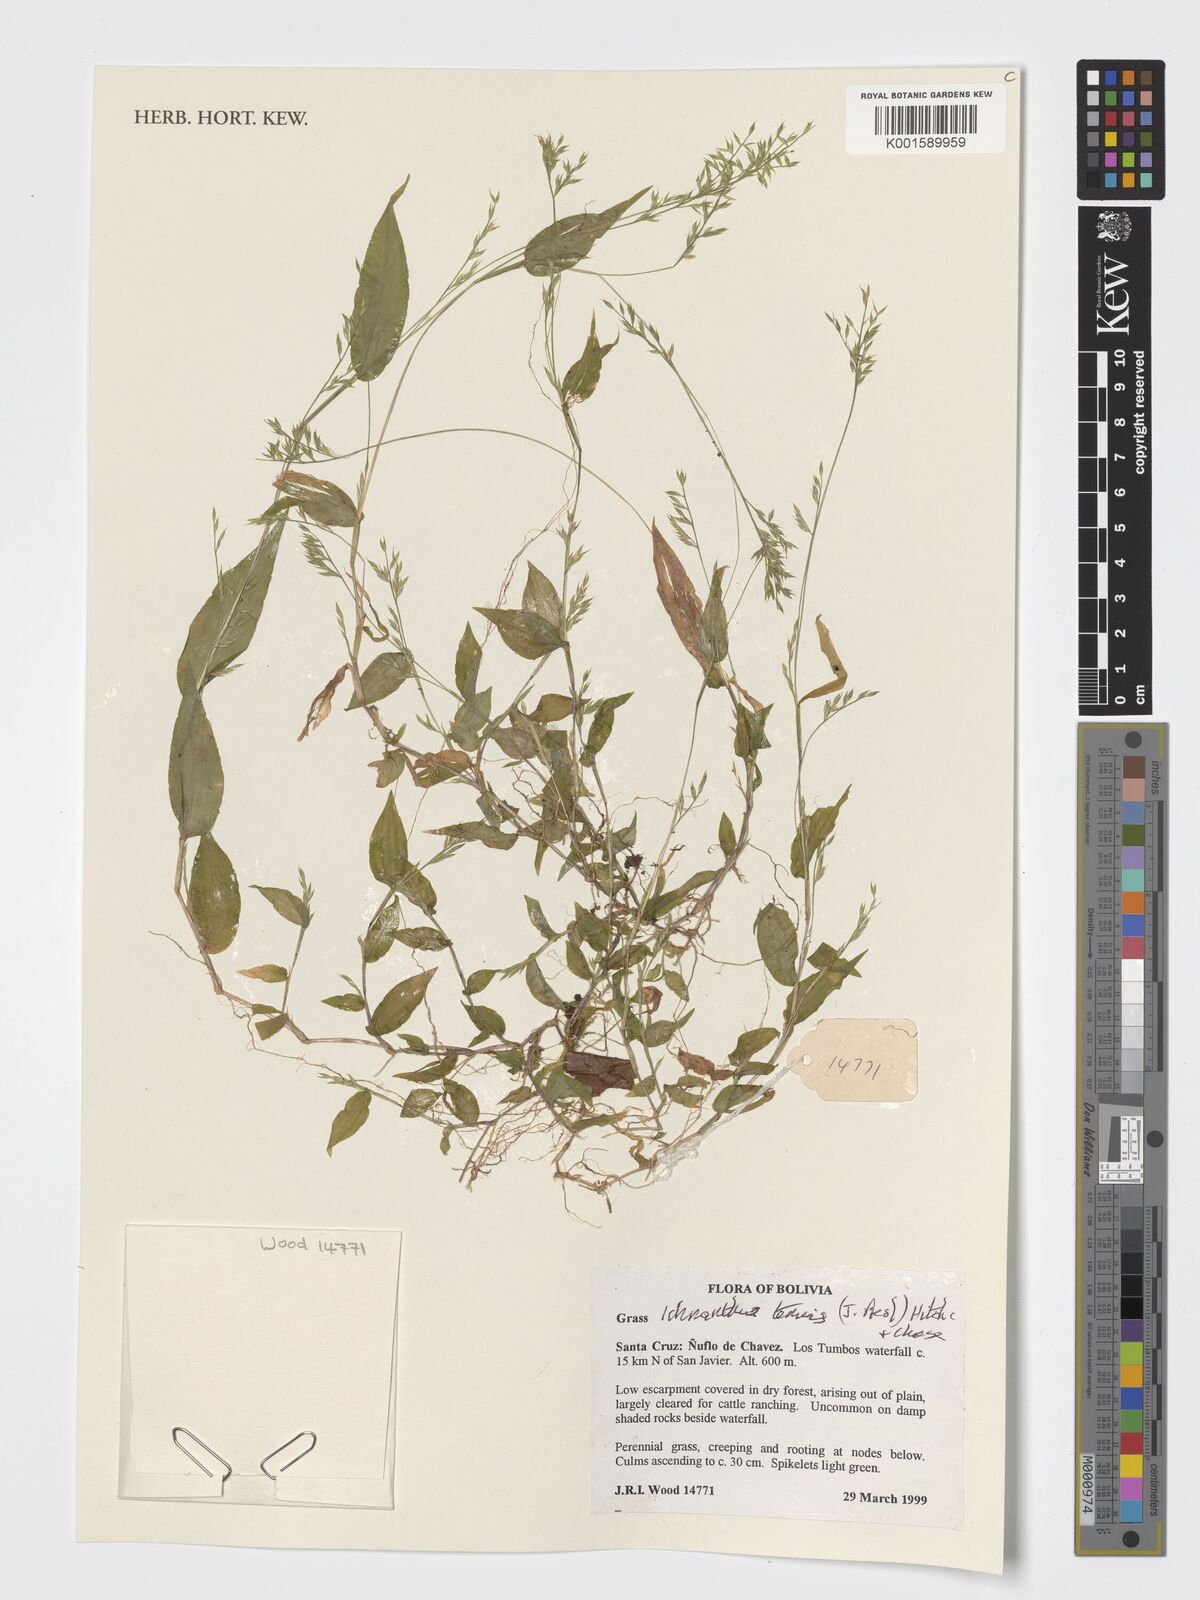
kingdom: Plantae
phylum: Tracheophyta
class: Liliopsida
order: Poales
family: Poaceae
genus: Ichnanthus
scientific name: Ichnanthus tenuis
